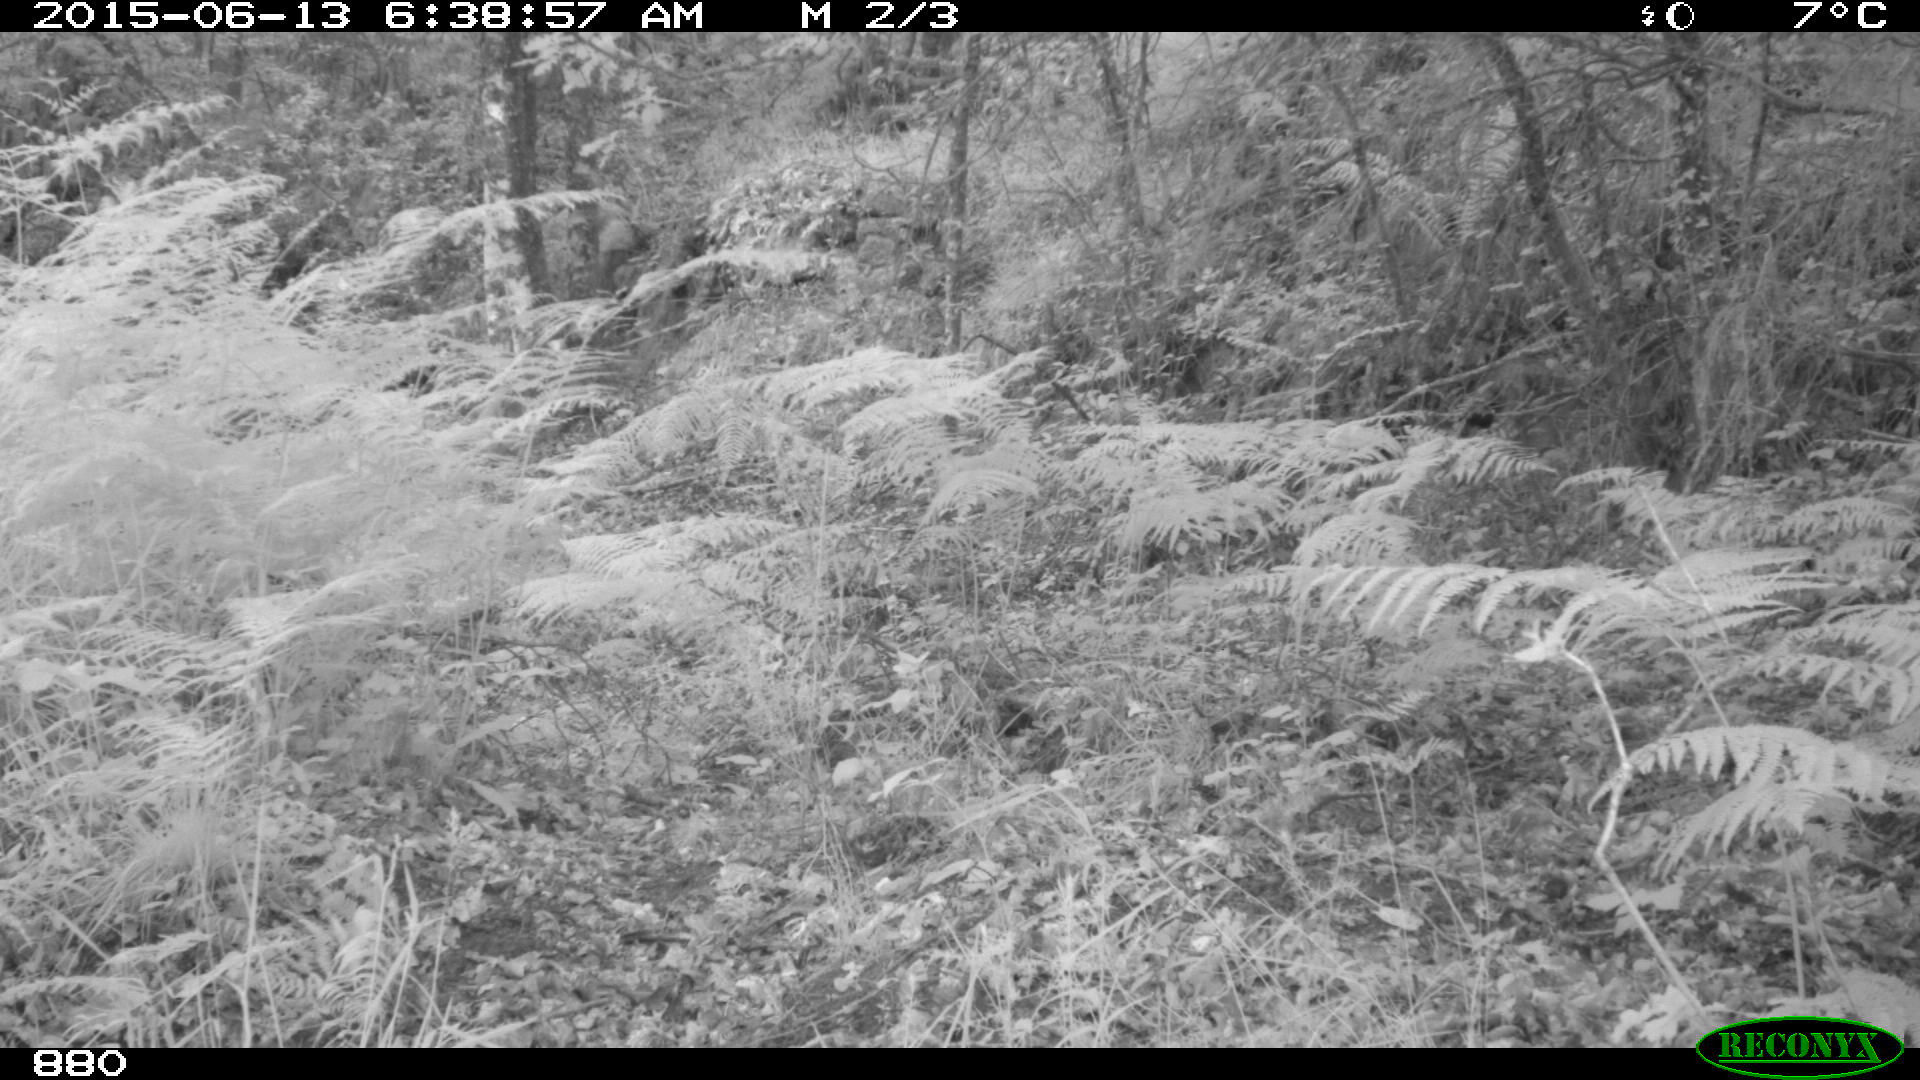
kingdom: Animalia
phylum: Chordata
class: Mammalia
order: Artiodactyla
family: Cervidae
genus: Capreolus
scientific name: Capreolus capreolus
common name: Western roe deer
